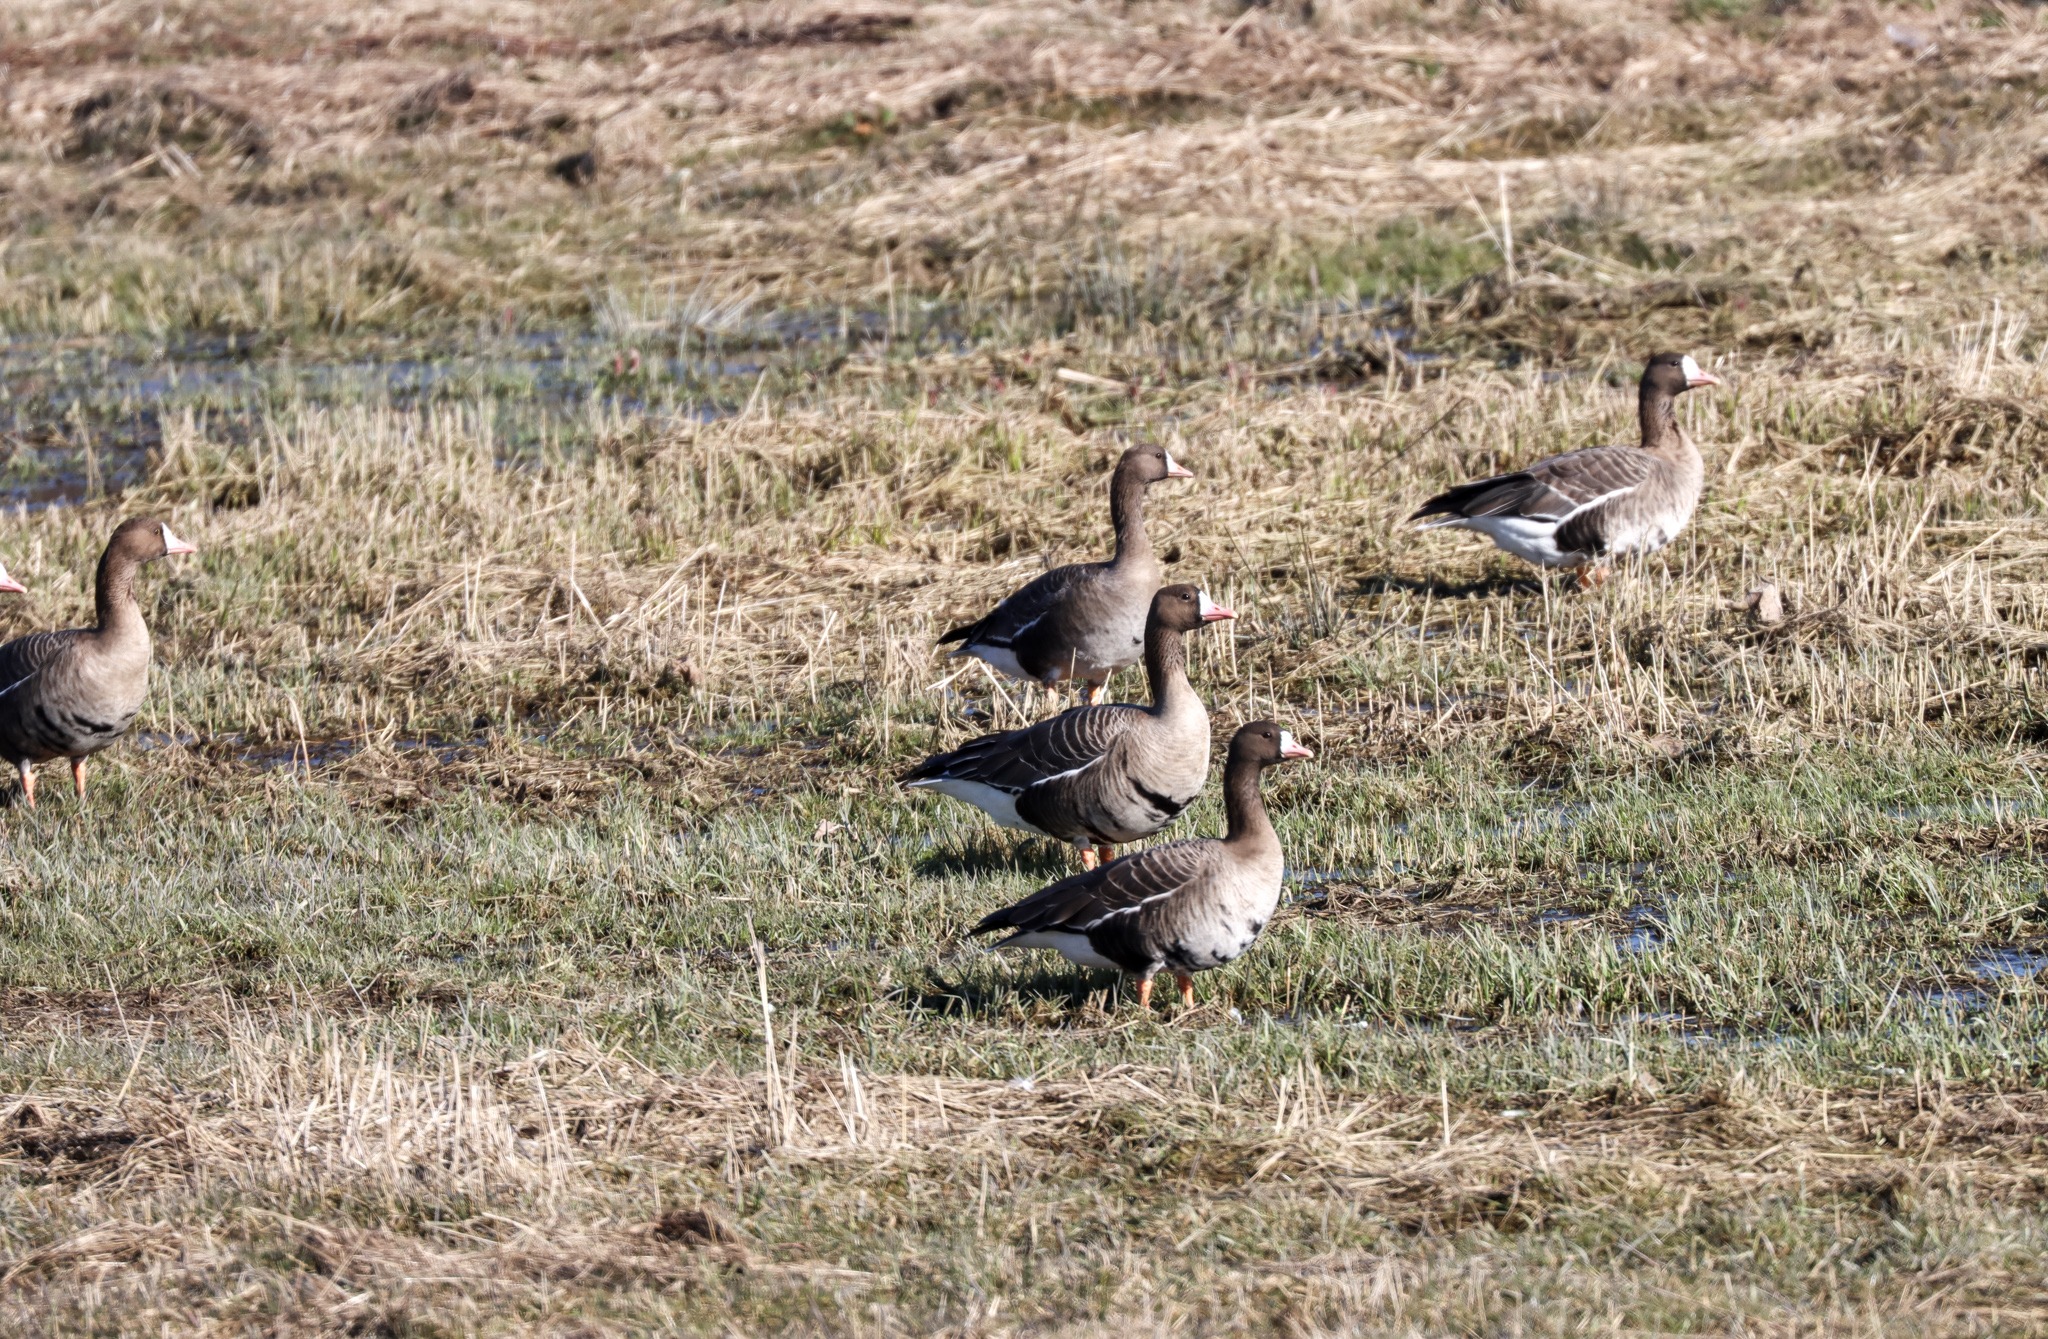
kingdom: Animalia
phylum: Chordata
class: Aves
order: Anseriformes
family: Anatidae
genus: Anser
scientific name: Anser albifrons
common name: Blisgås
